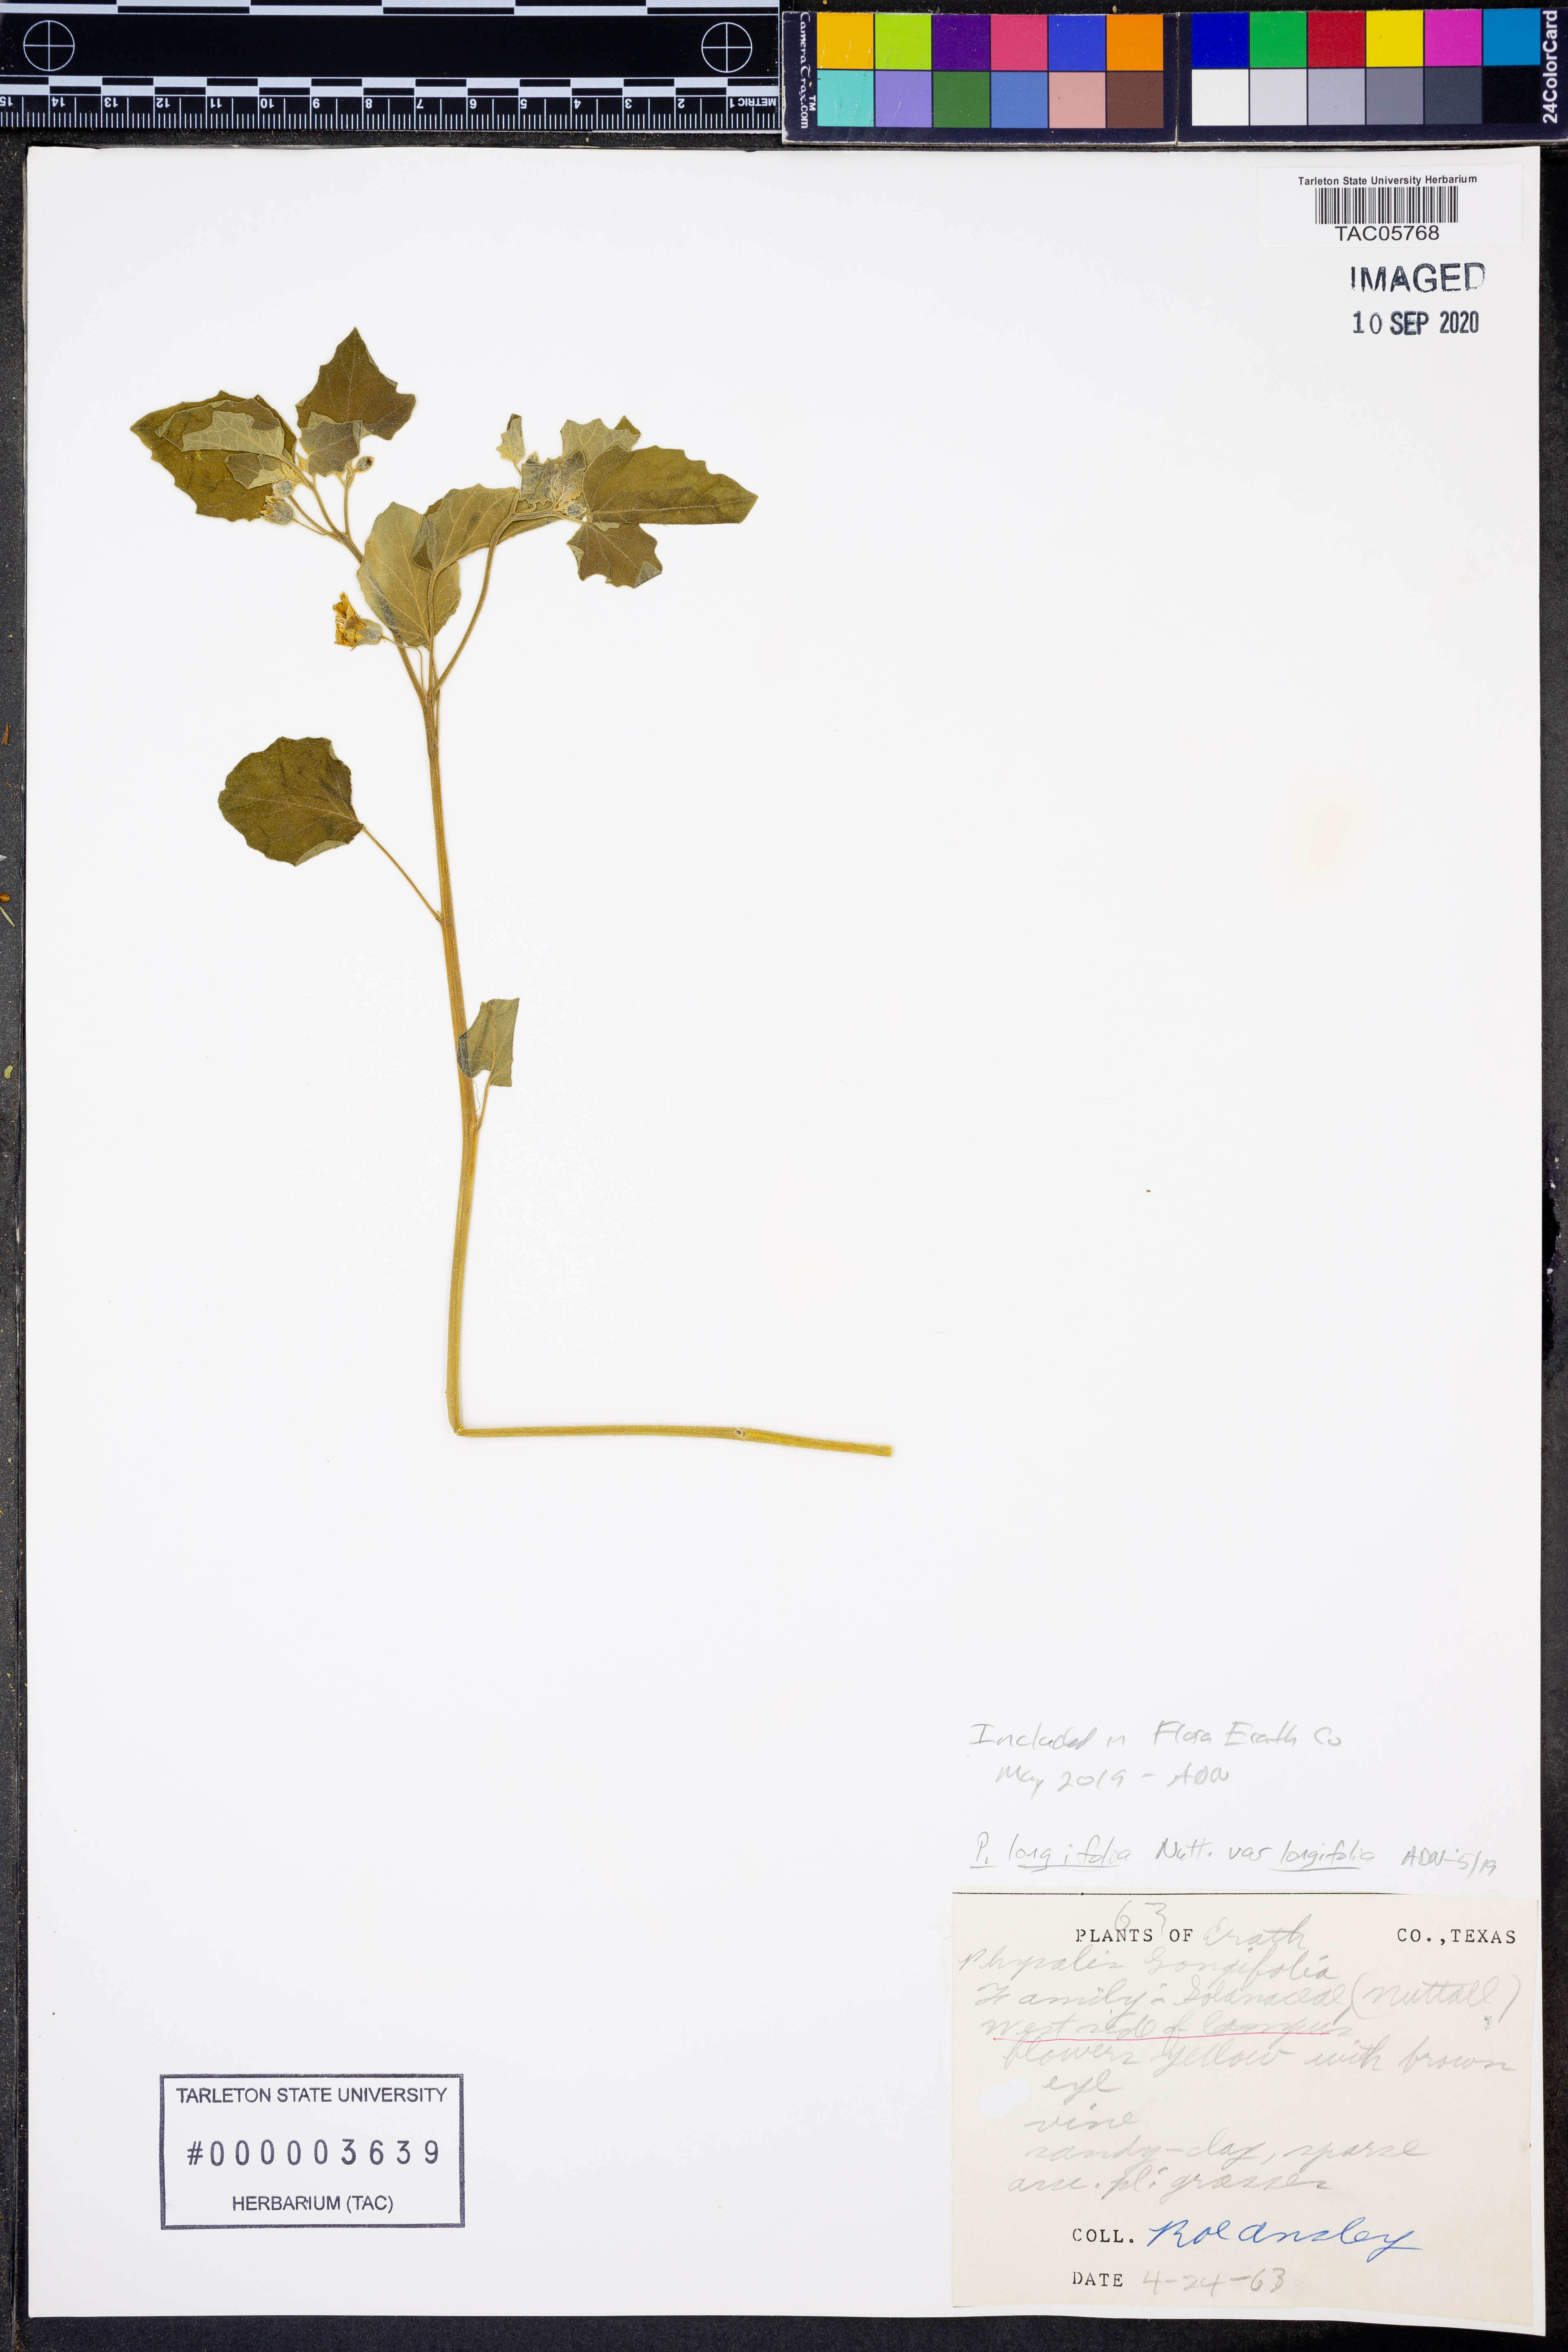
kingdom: Plantae
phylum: Tracheophyta
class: Magnoliopsida
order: Solanales
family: Solanaceae
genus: Physalis
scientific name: Physalis longifolia
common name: Common ground-cherry
